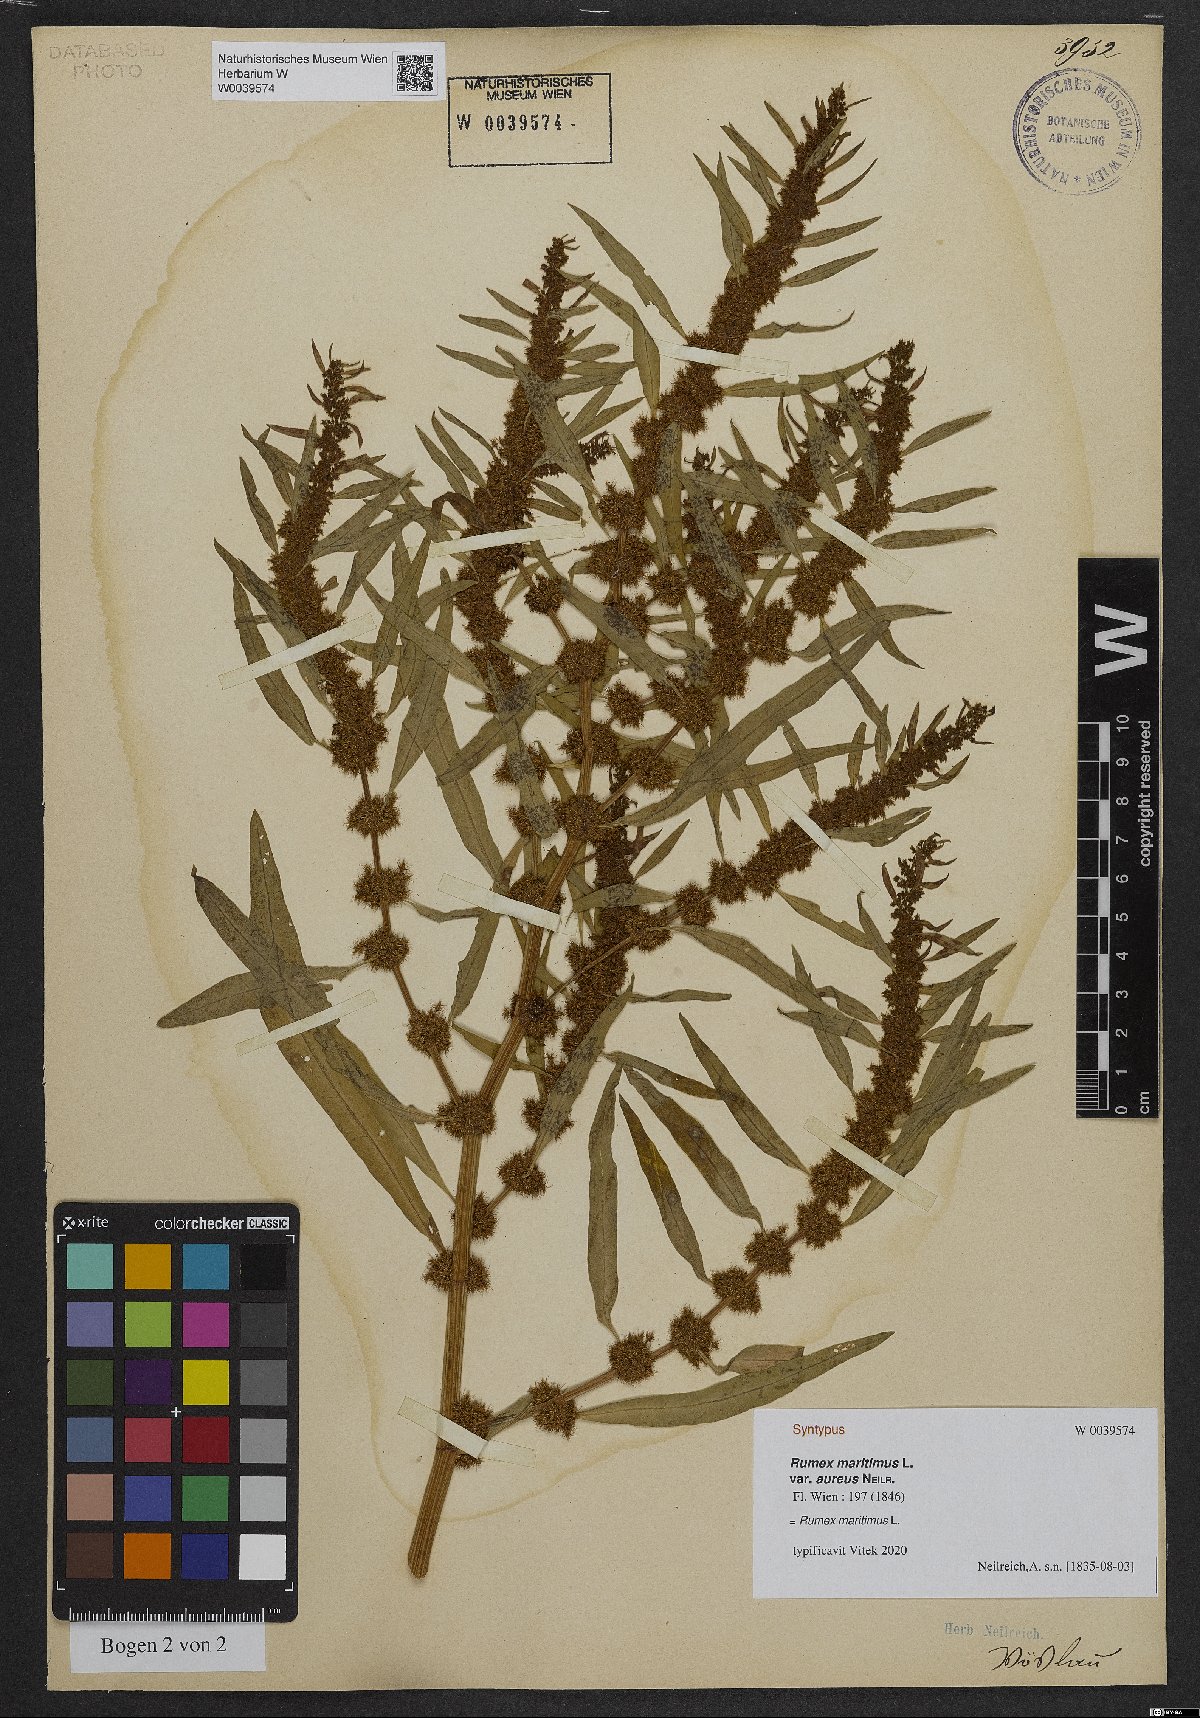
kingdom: Plantae
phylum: Tracheophyta
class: Magnoliopsida
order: Caryophyllales
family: Polygonaceae
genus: Rumex
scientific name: Rumex maritimus
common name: Golden dock
